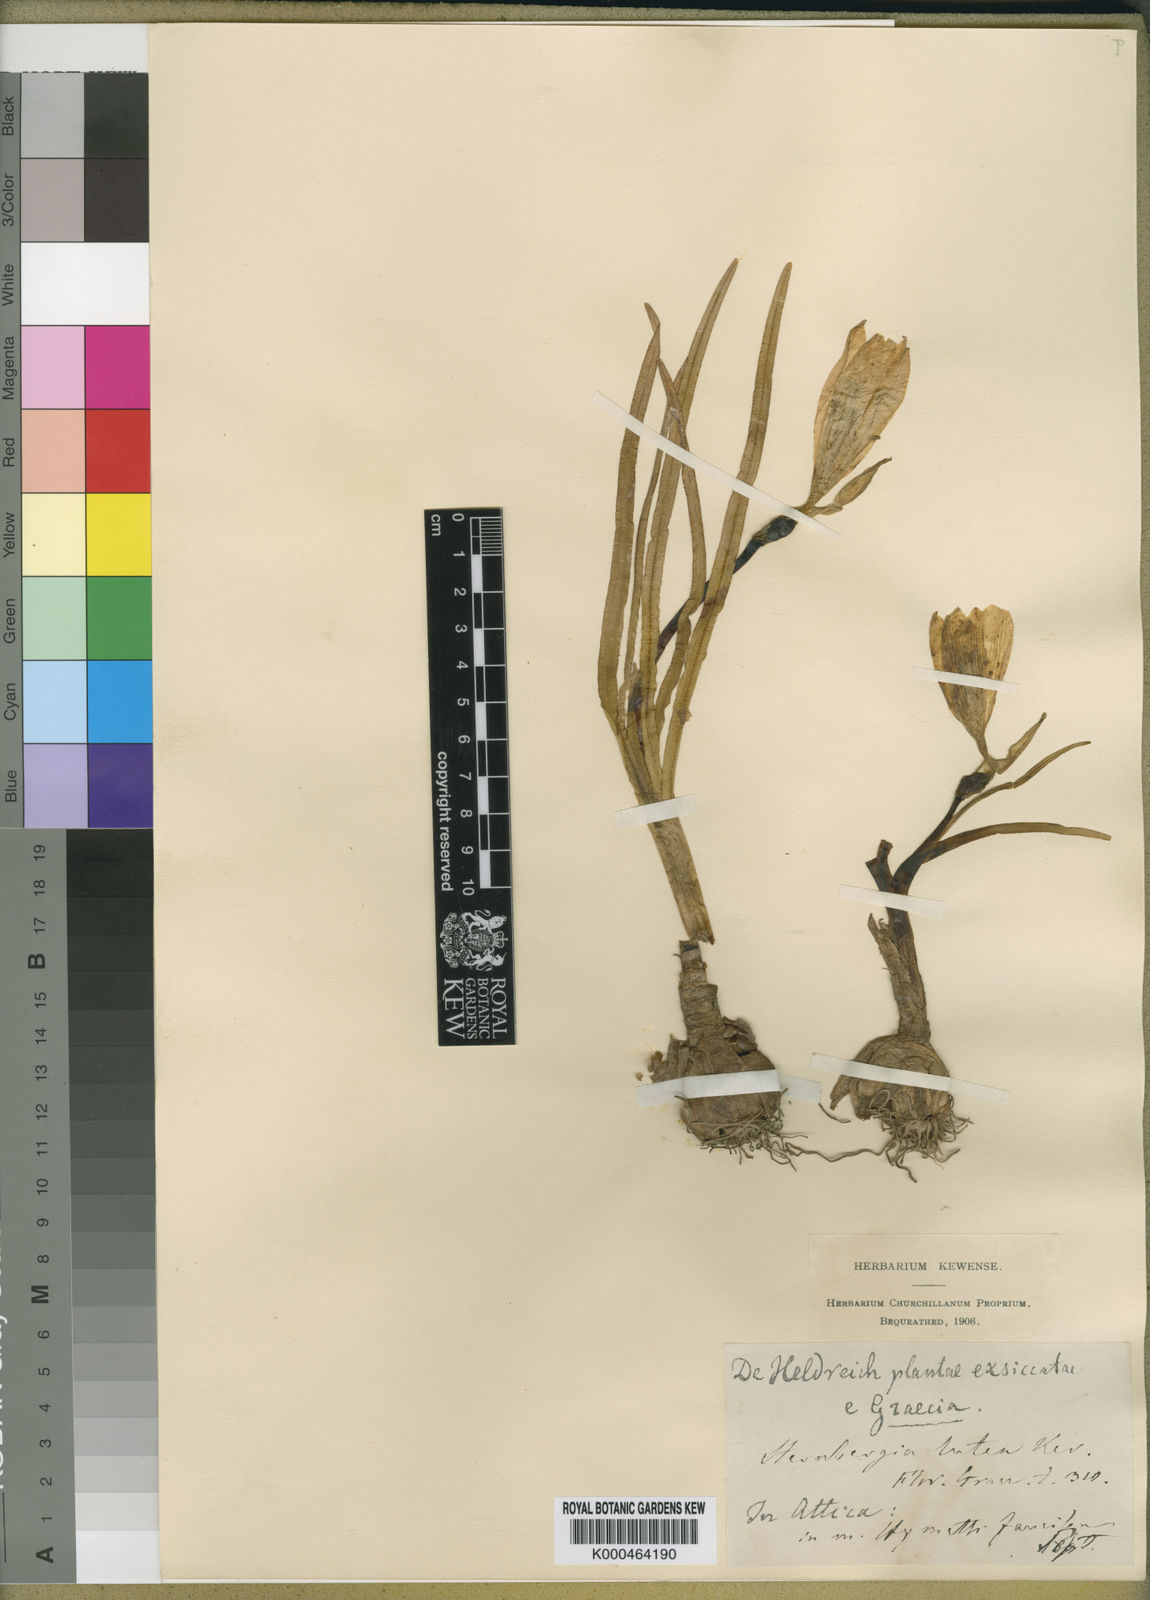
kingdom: Plantae
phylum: Tracheophyta
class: Liliopsida
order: Asparagales
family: Amaryllidaceae
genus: Sternbergia
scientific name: Sternbergia
